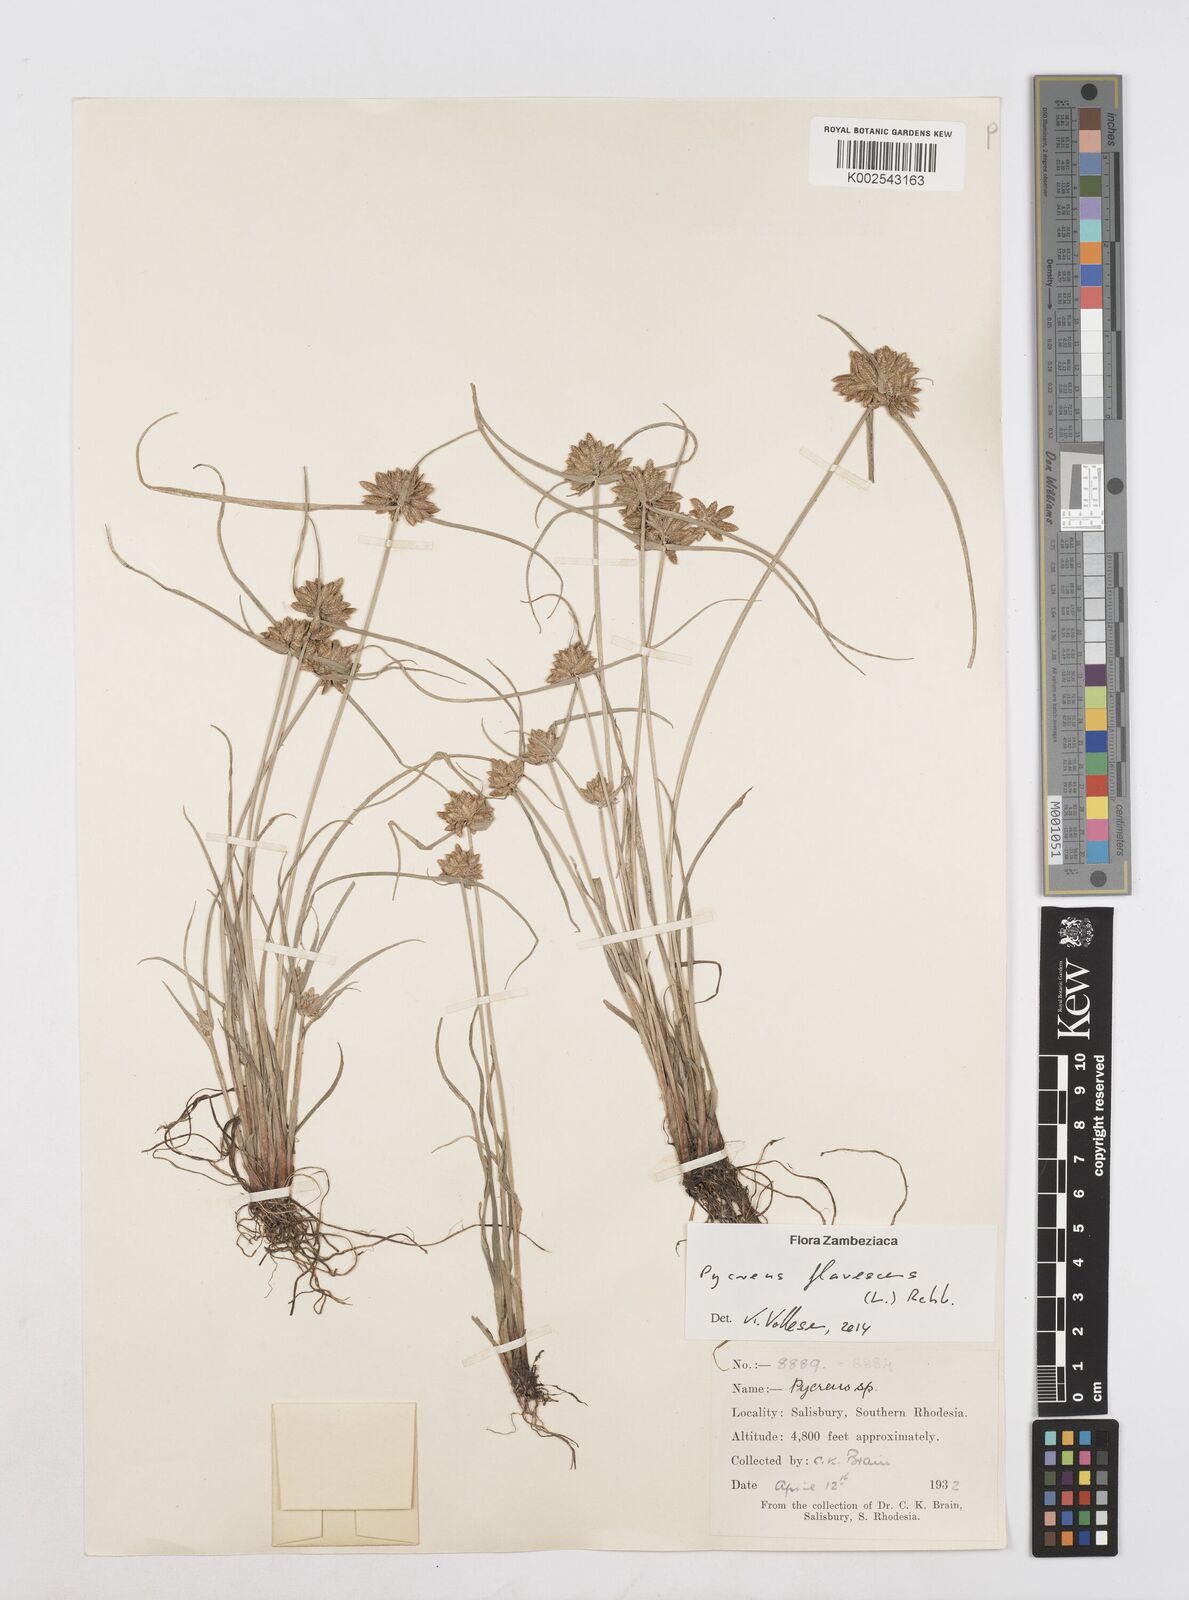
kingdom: Plantae
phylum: Tracheophyta
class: Liliopsida
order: Poales
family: Cyperaceae
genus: Cyperus
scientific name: Cyperus flavescens
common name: Yellow galingale
